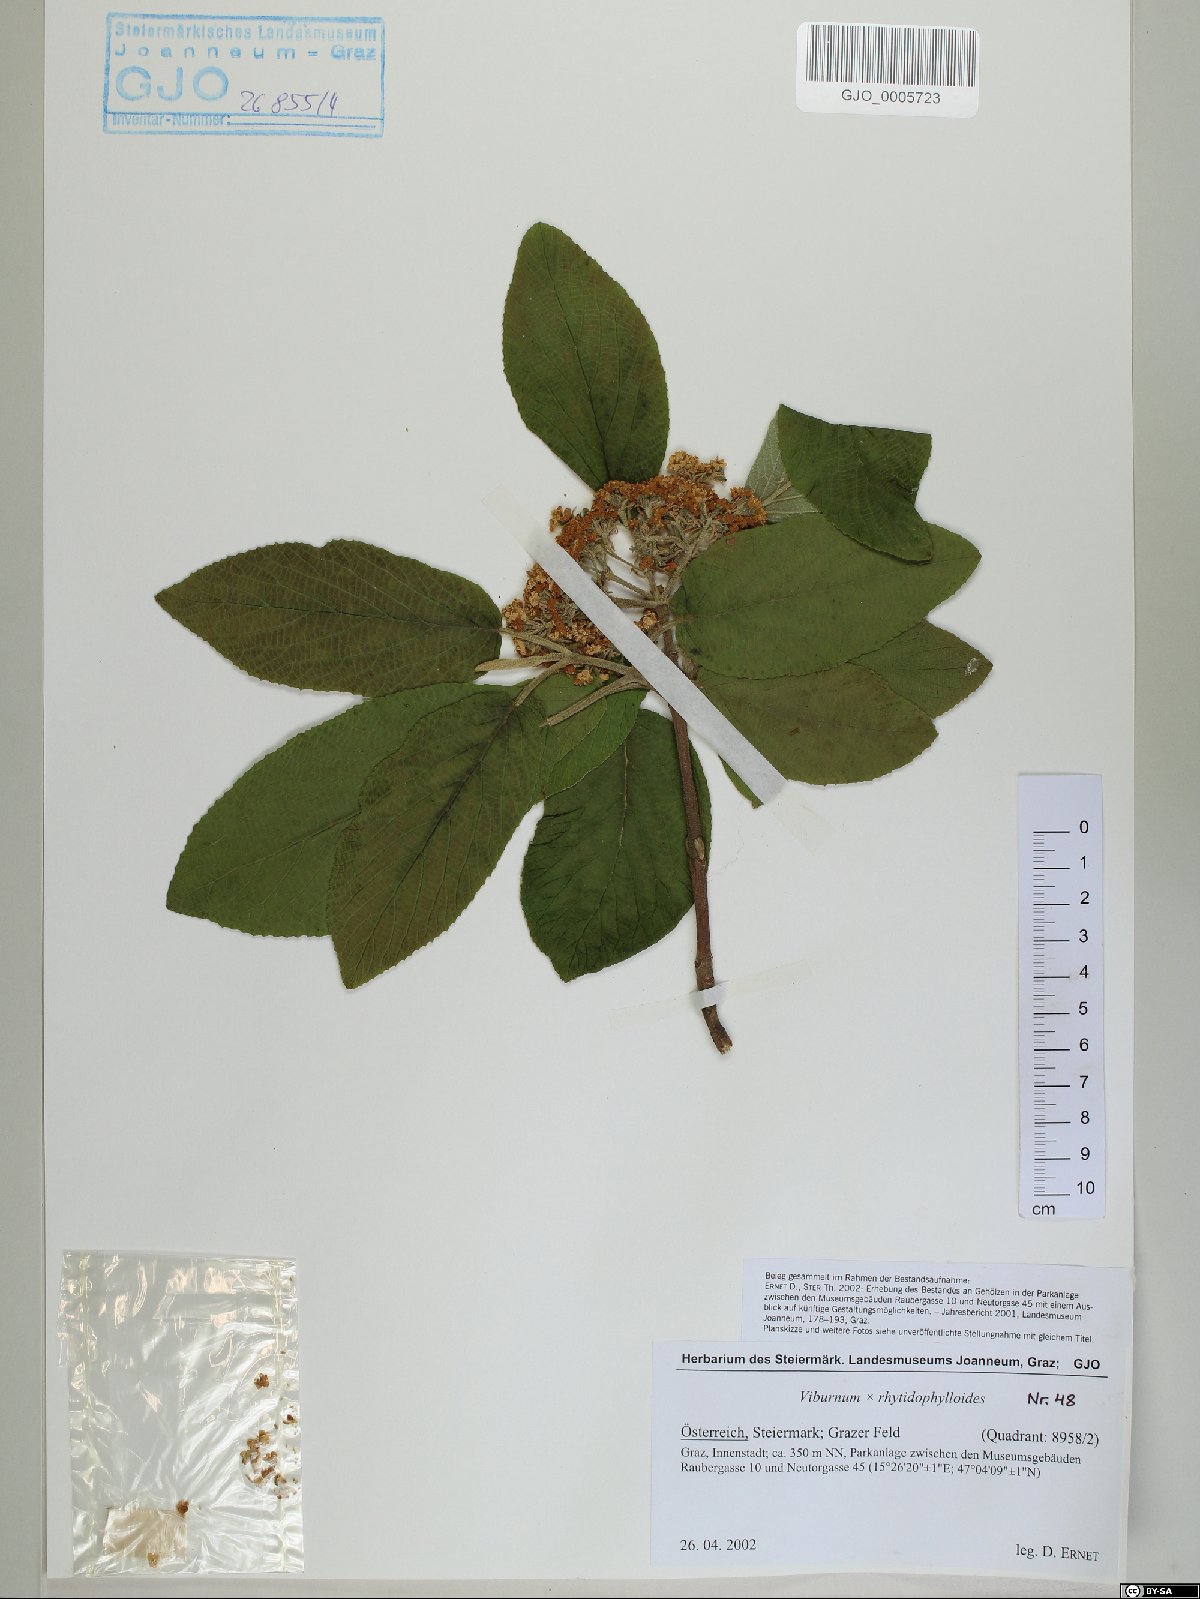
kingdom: Plantae
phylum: Tracheophyta
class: Magnoliopsida
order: Dipsacales
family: Viburnaceae
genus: Viburnum
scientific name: Viburnum rhytidophylloides
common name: Viburnum
